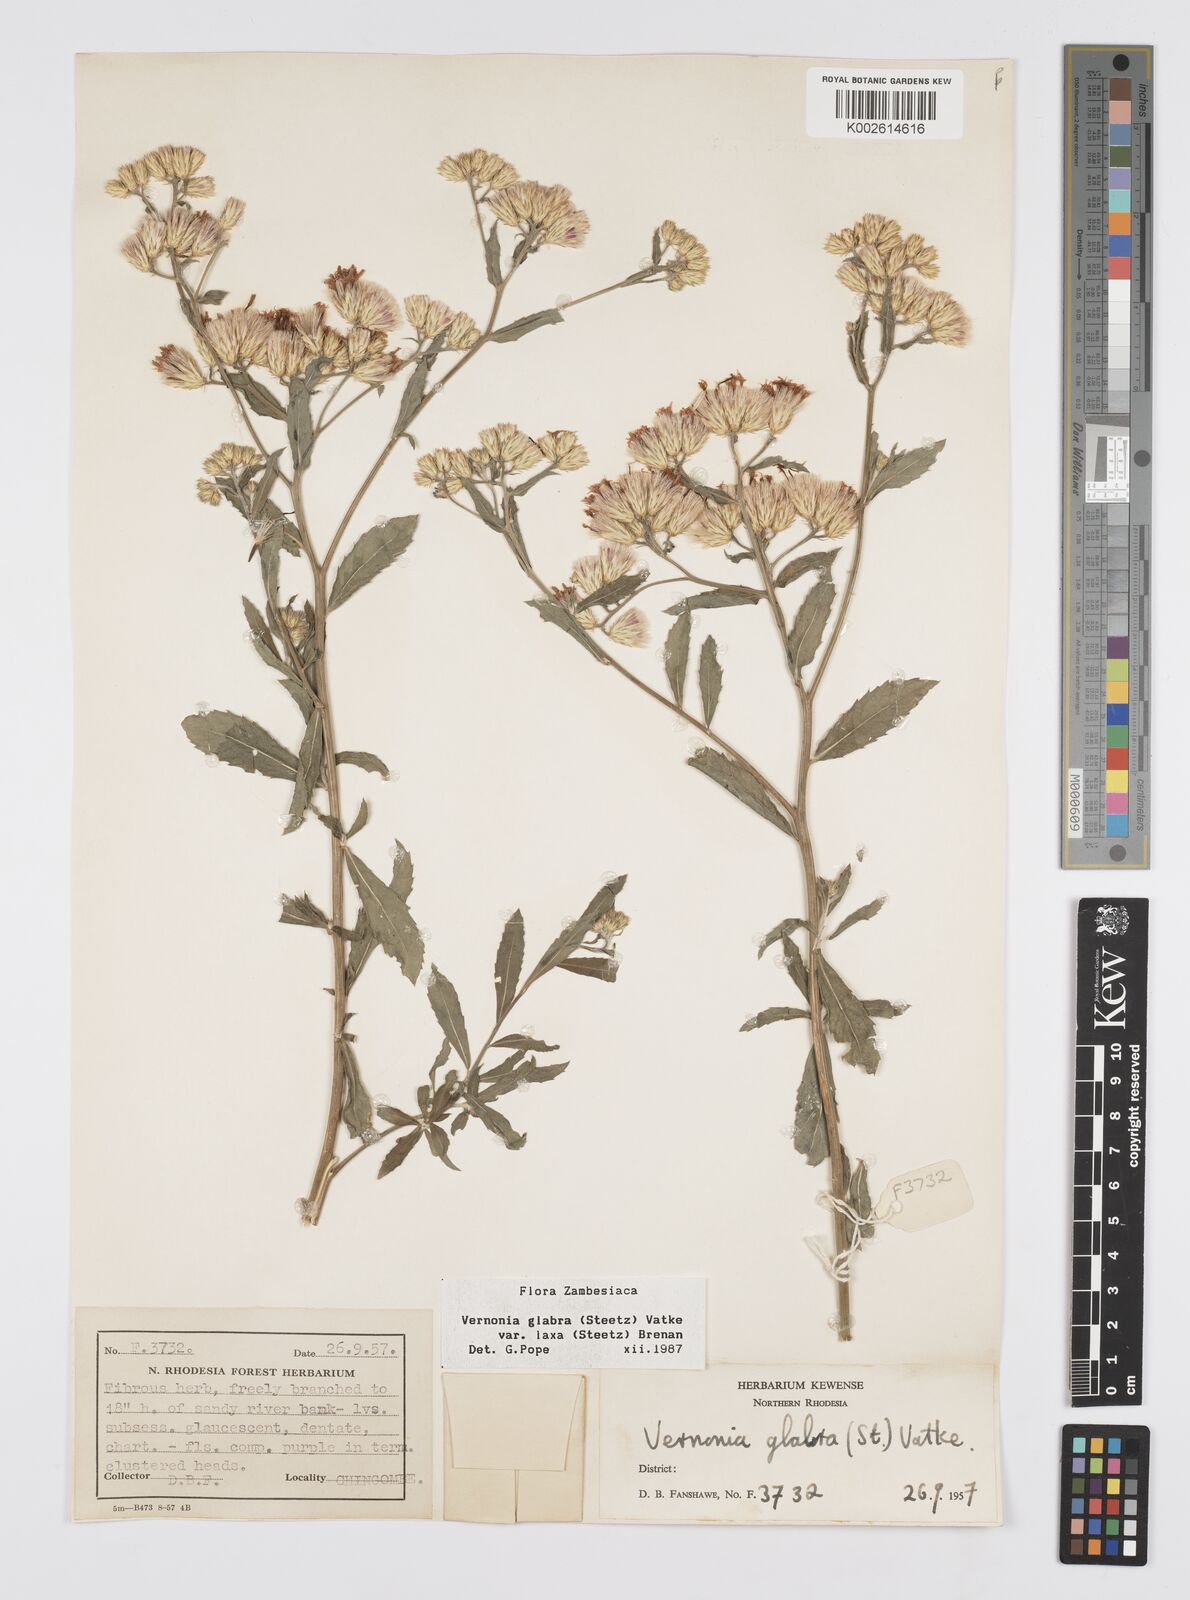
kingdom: Plantae
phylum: Tracheophyta
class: Magnoliopsida
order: Asterales
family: Asteraceae
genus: Linzia
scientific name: Linzia glabra
